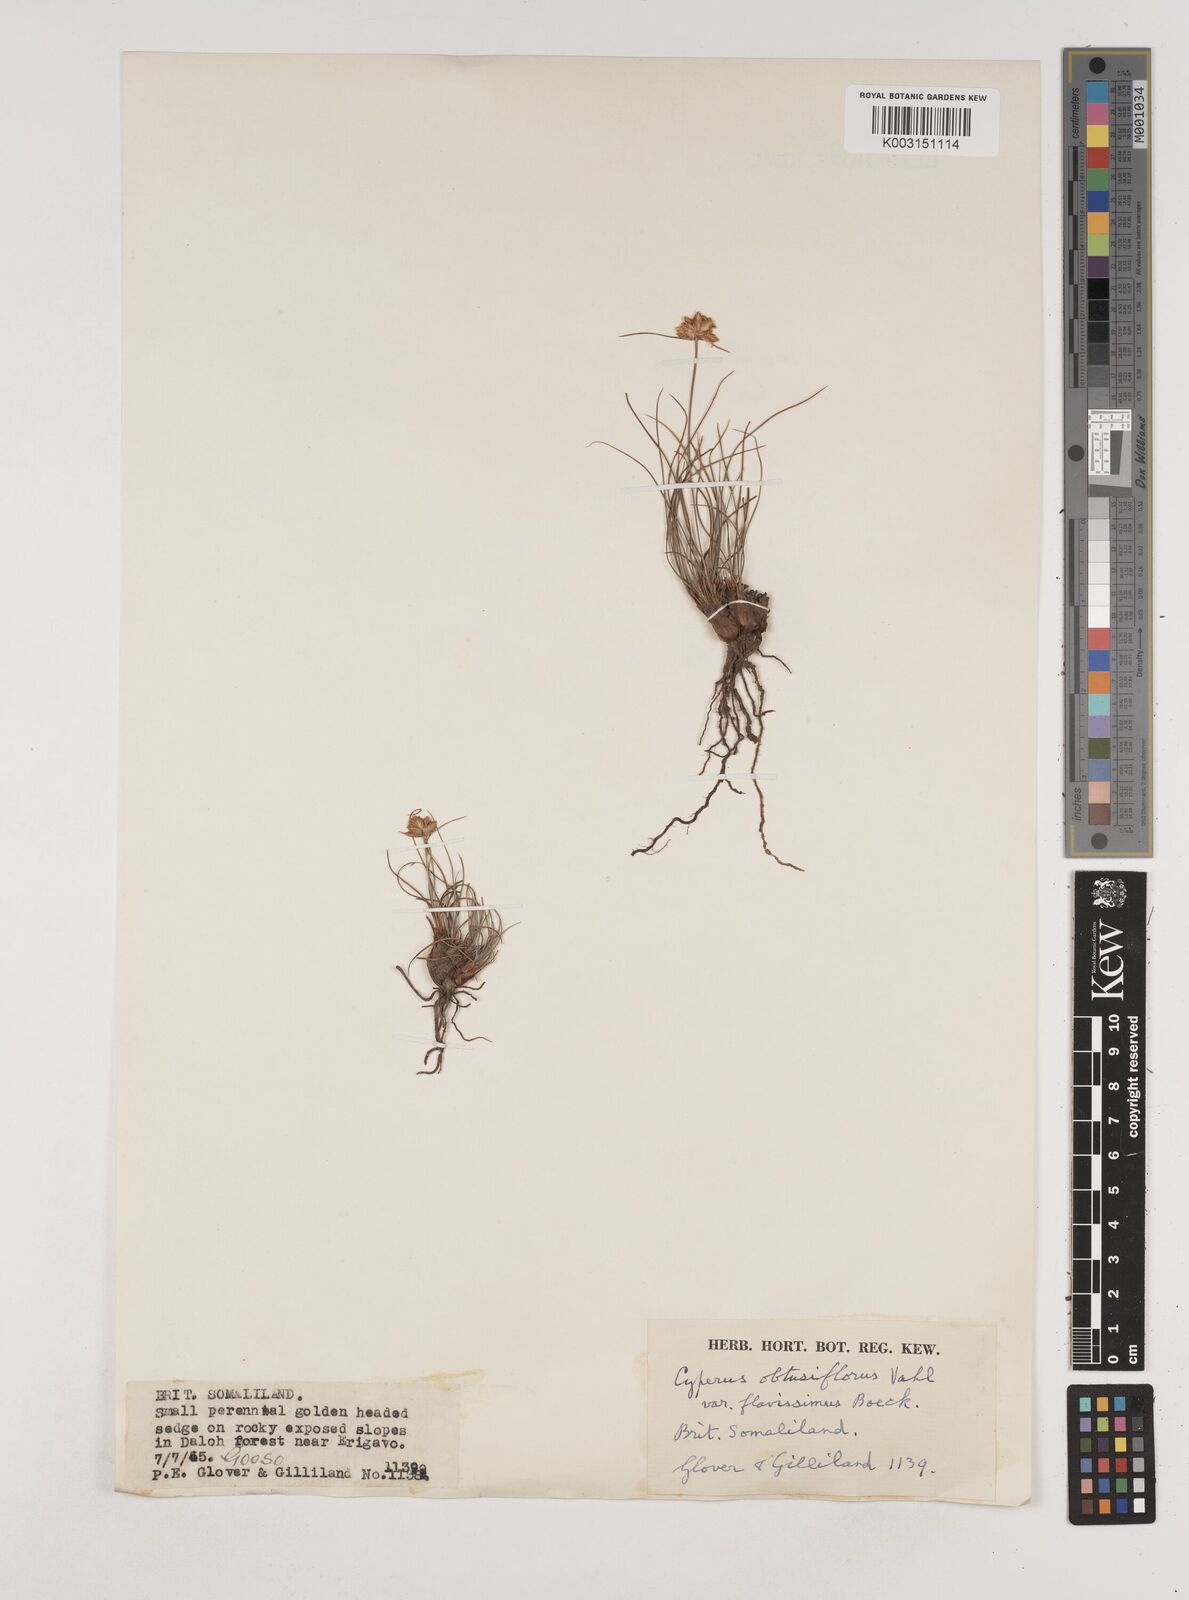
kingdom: Plantae
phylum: Tracheophyta
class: Liliopsida
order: Poales
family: Cyperaceae
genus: Cyperus
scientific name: Cyperus niveus
